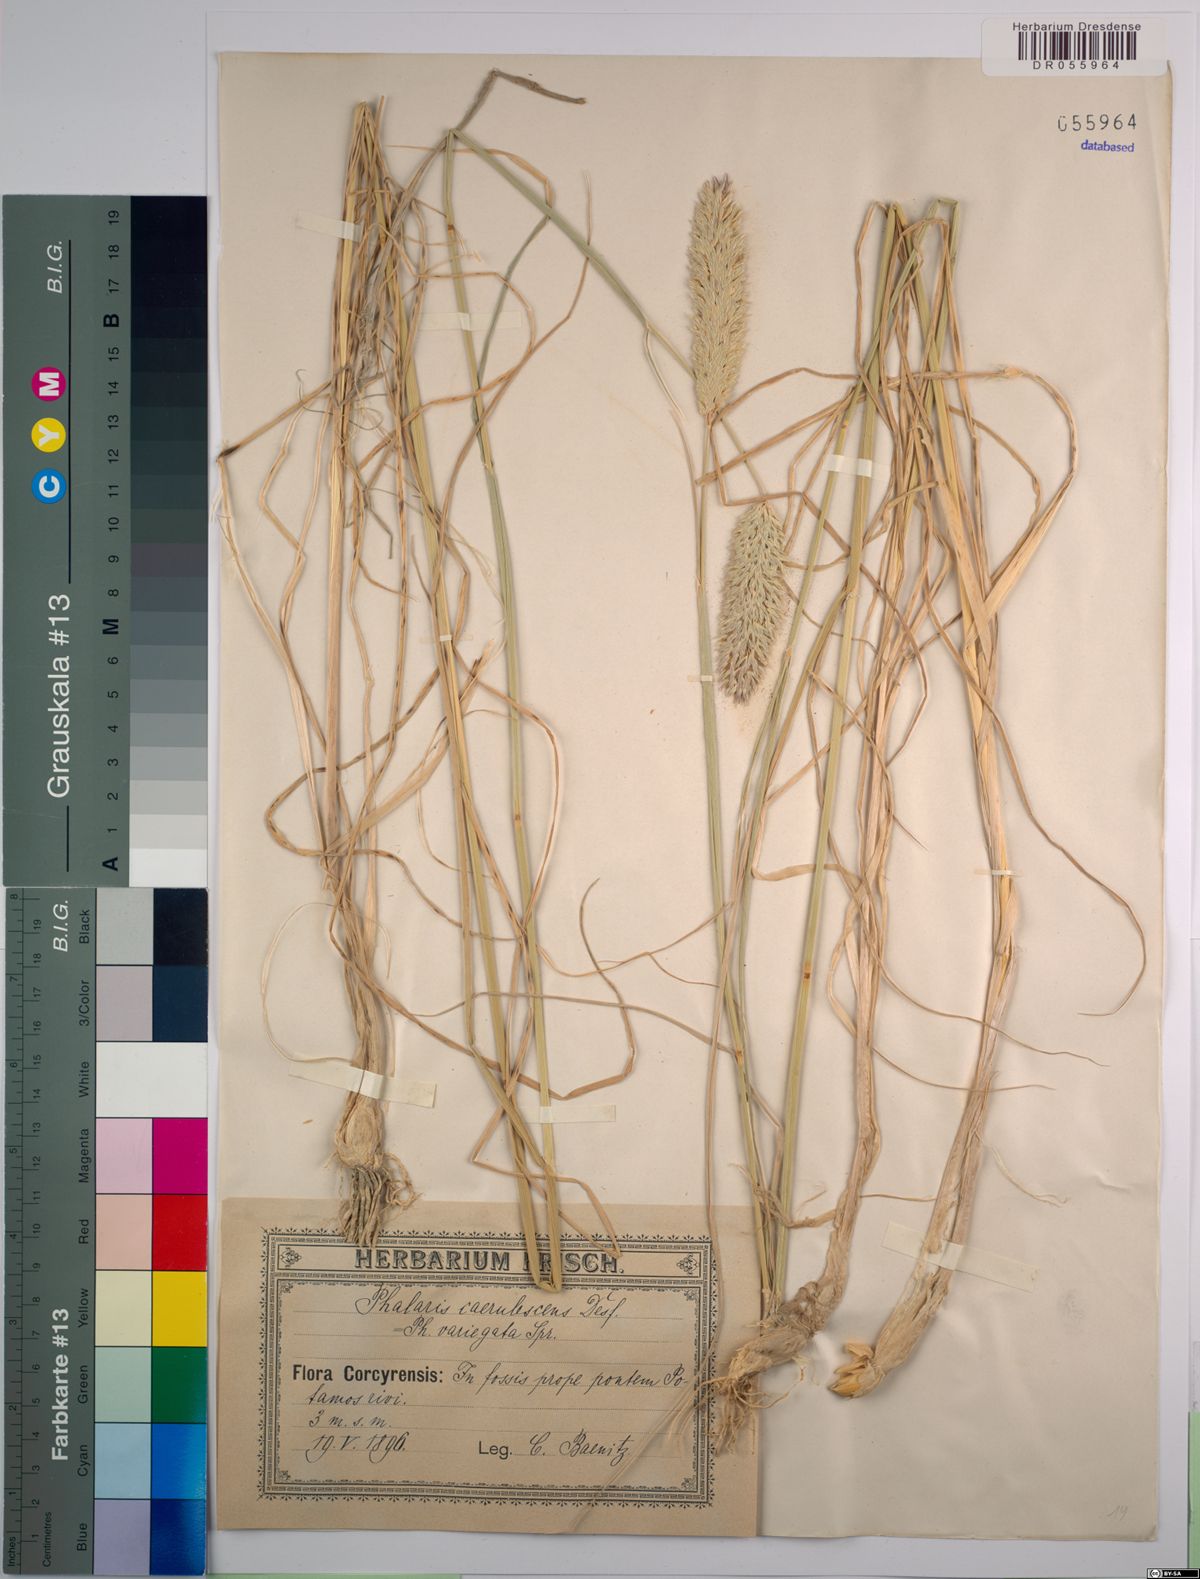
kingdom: Plantae
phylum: Tracheophyta
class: Liliopsida
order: Poales
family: Poaceae
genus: Phalaris
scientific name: Phalaris coerulescens
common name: Sunolgrass
